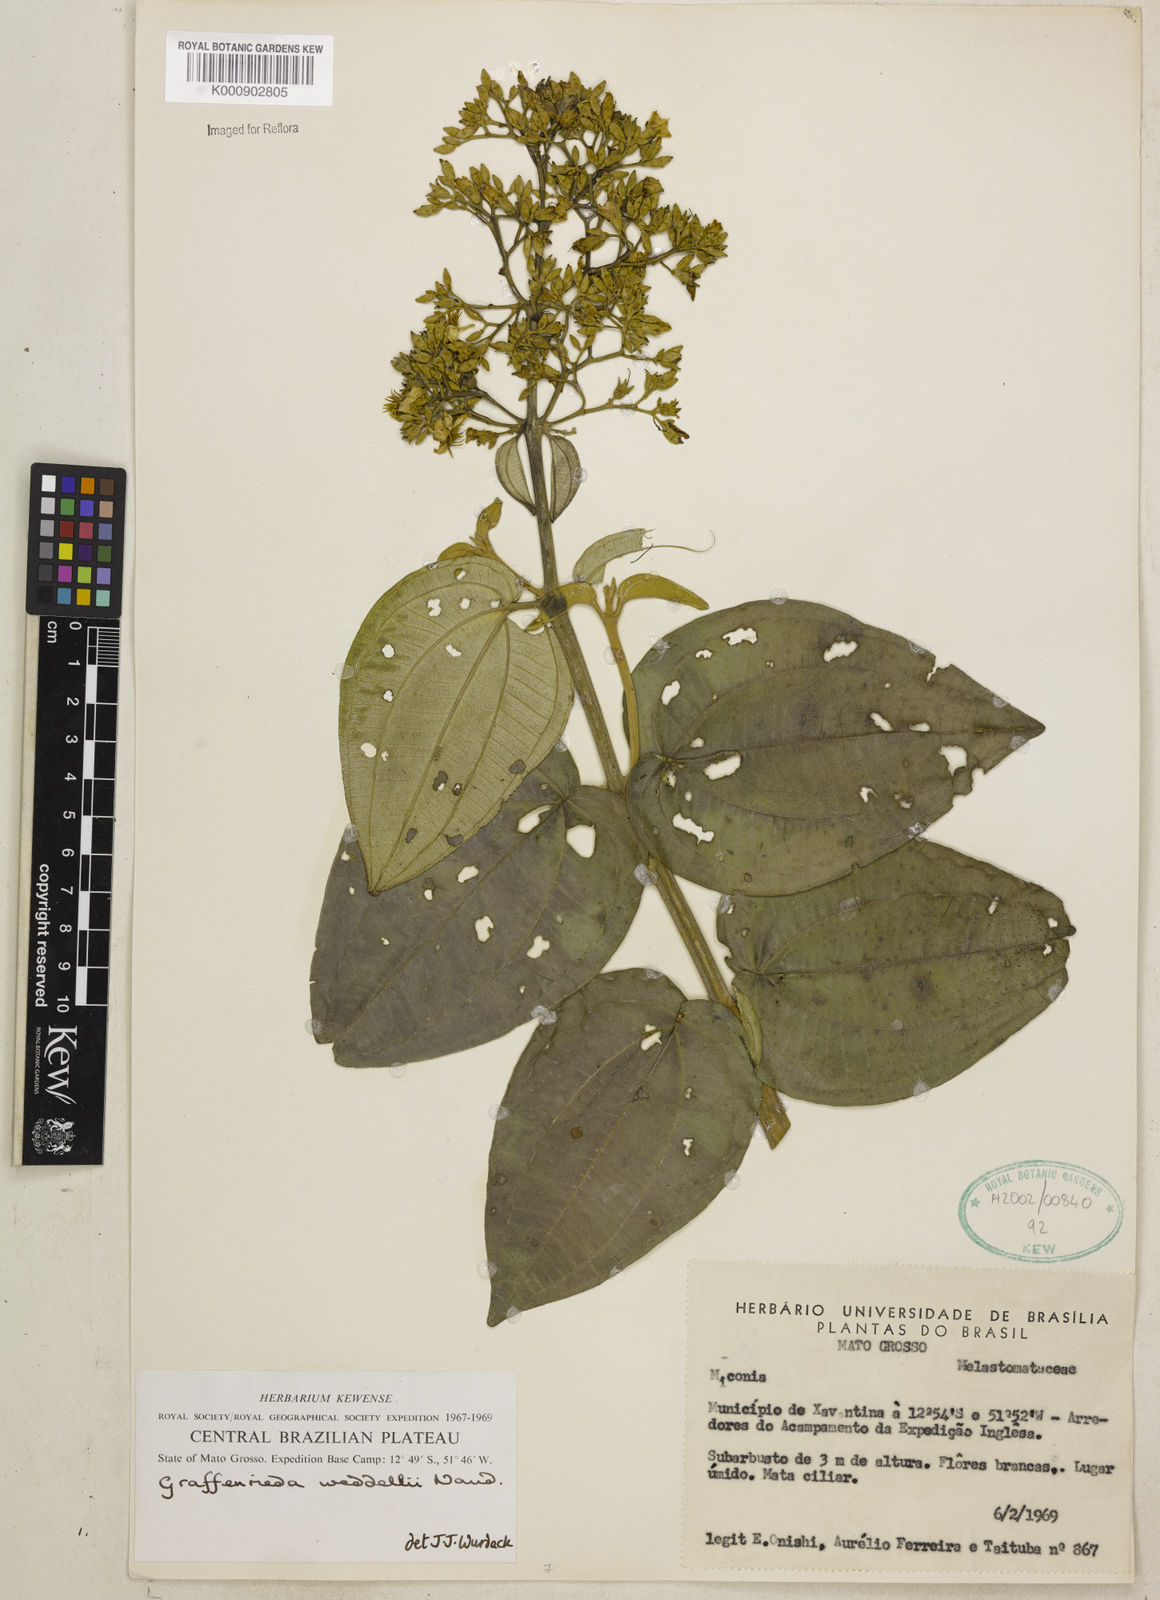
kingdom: Plantae
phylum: Tracheophyta
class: Magnoliopsida
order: Myrtales
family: Melastomataceae
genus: Graffenrieda
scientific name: Graffenrieda weddellii
